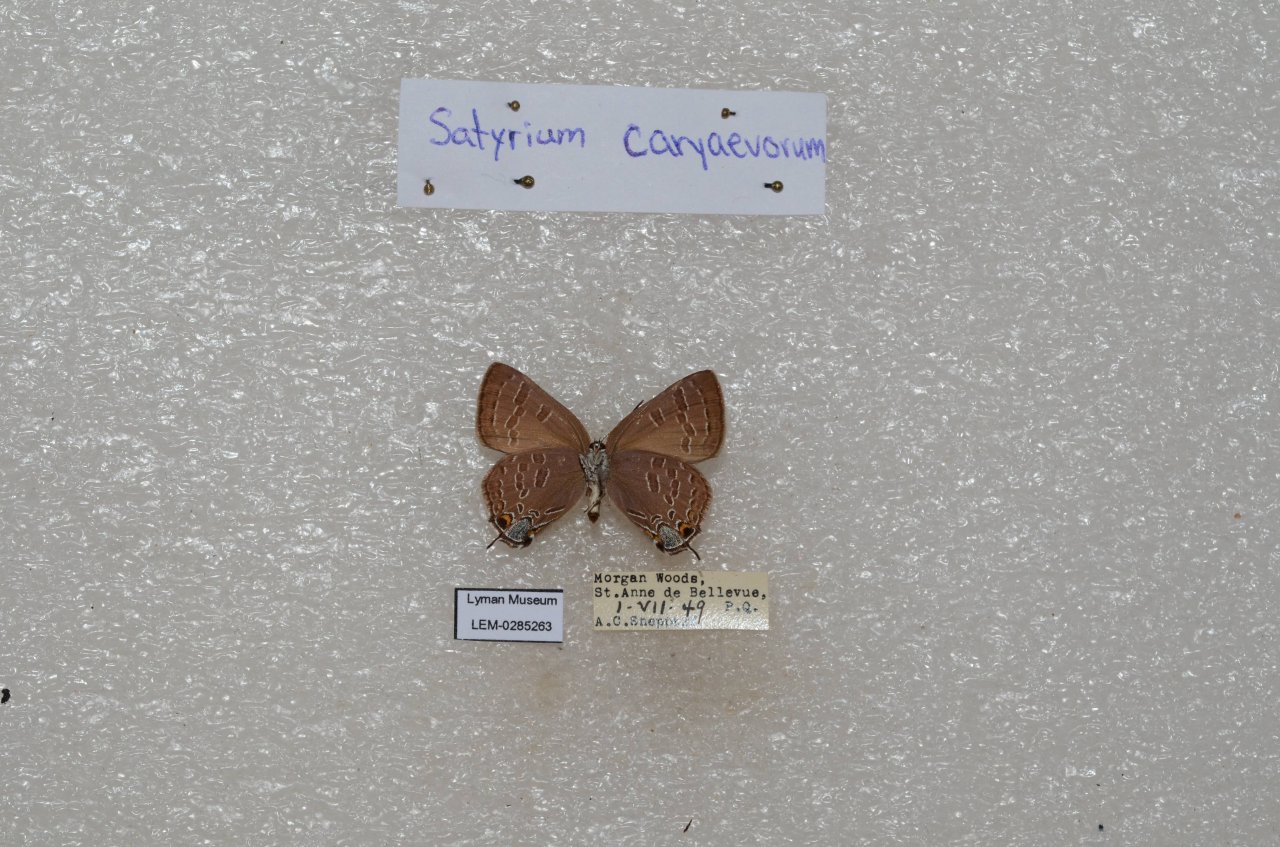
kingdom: Animalia
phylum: Arthropoda
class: Insecta
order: Lepidoptera
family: Lycaenidae
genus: Strymon
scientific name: Strymon caryaevorus
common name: Hickory Hairstreak
